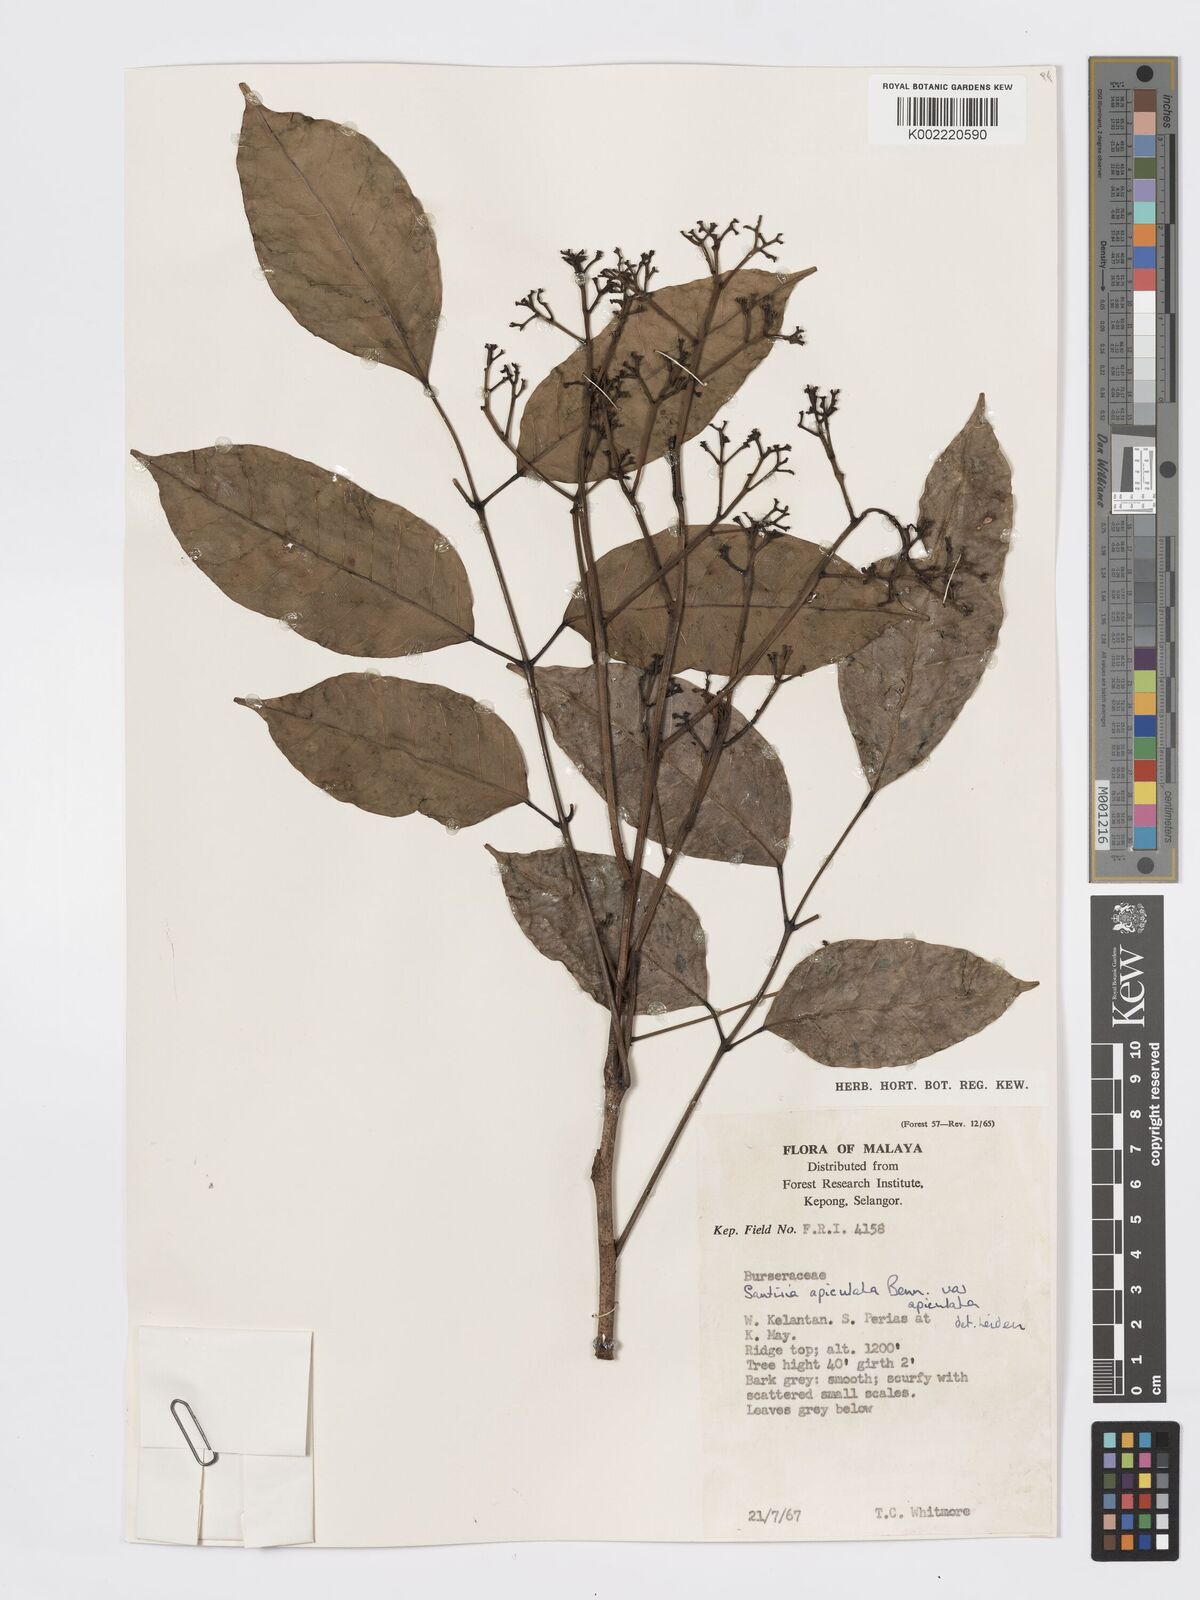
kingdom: Plantae
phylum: Tracheophyta
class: Magnoliopsida
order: Sapindales
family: Burseraceae
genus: Santiria
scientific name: Santiria apiculata
